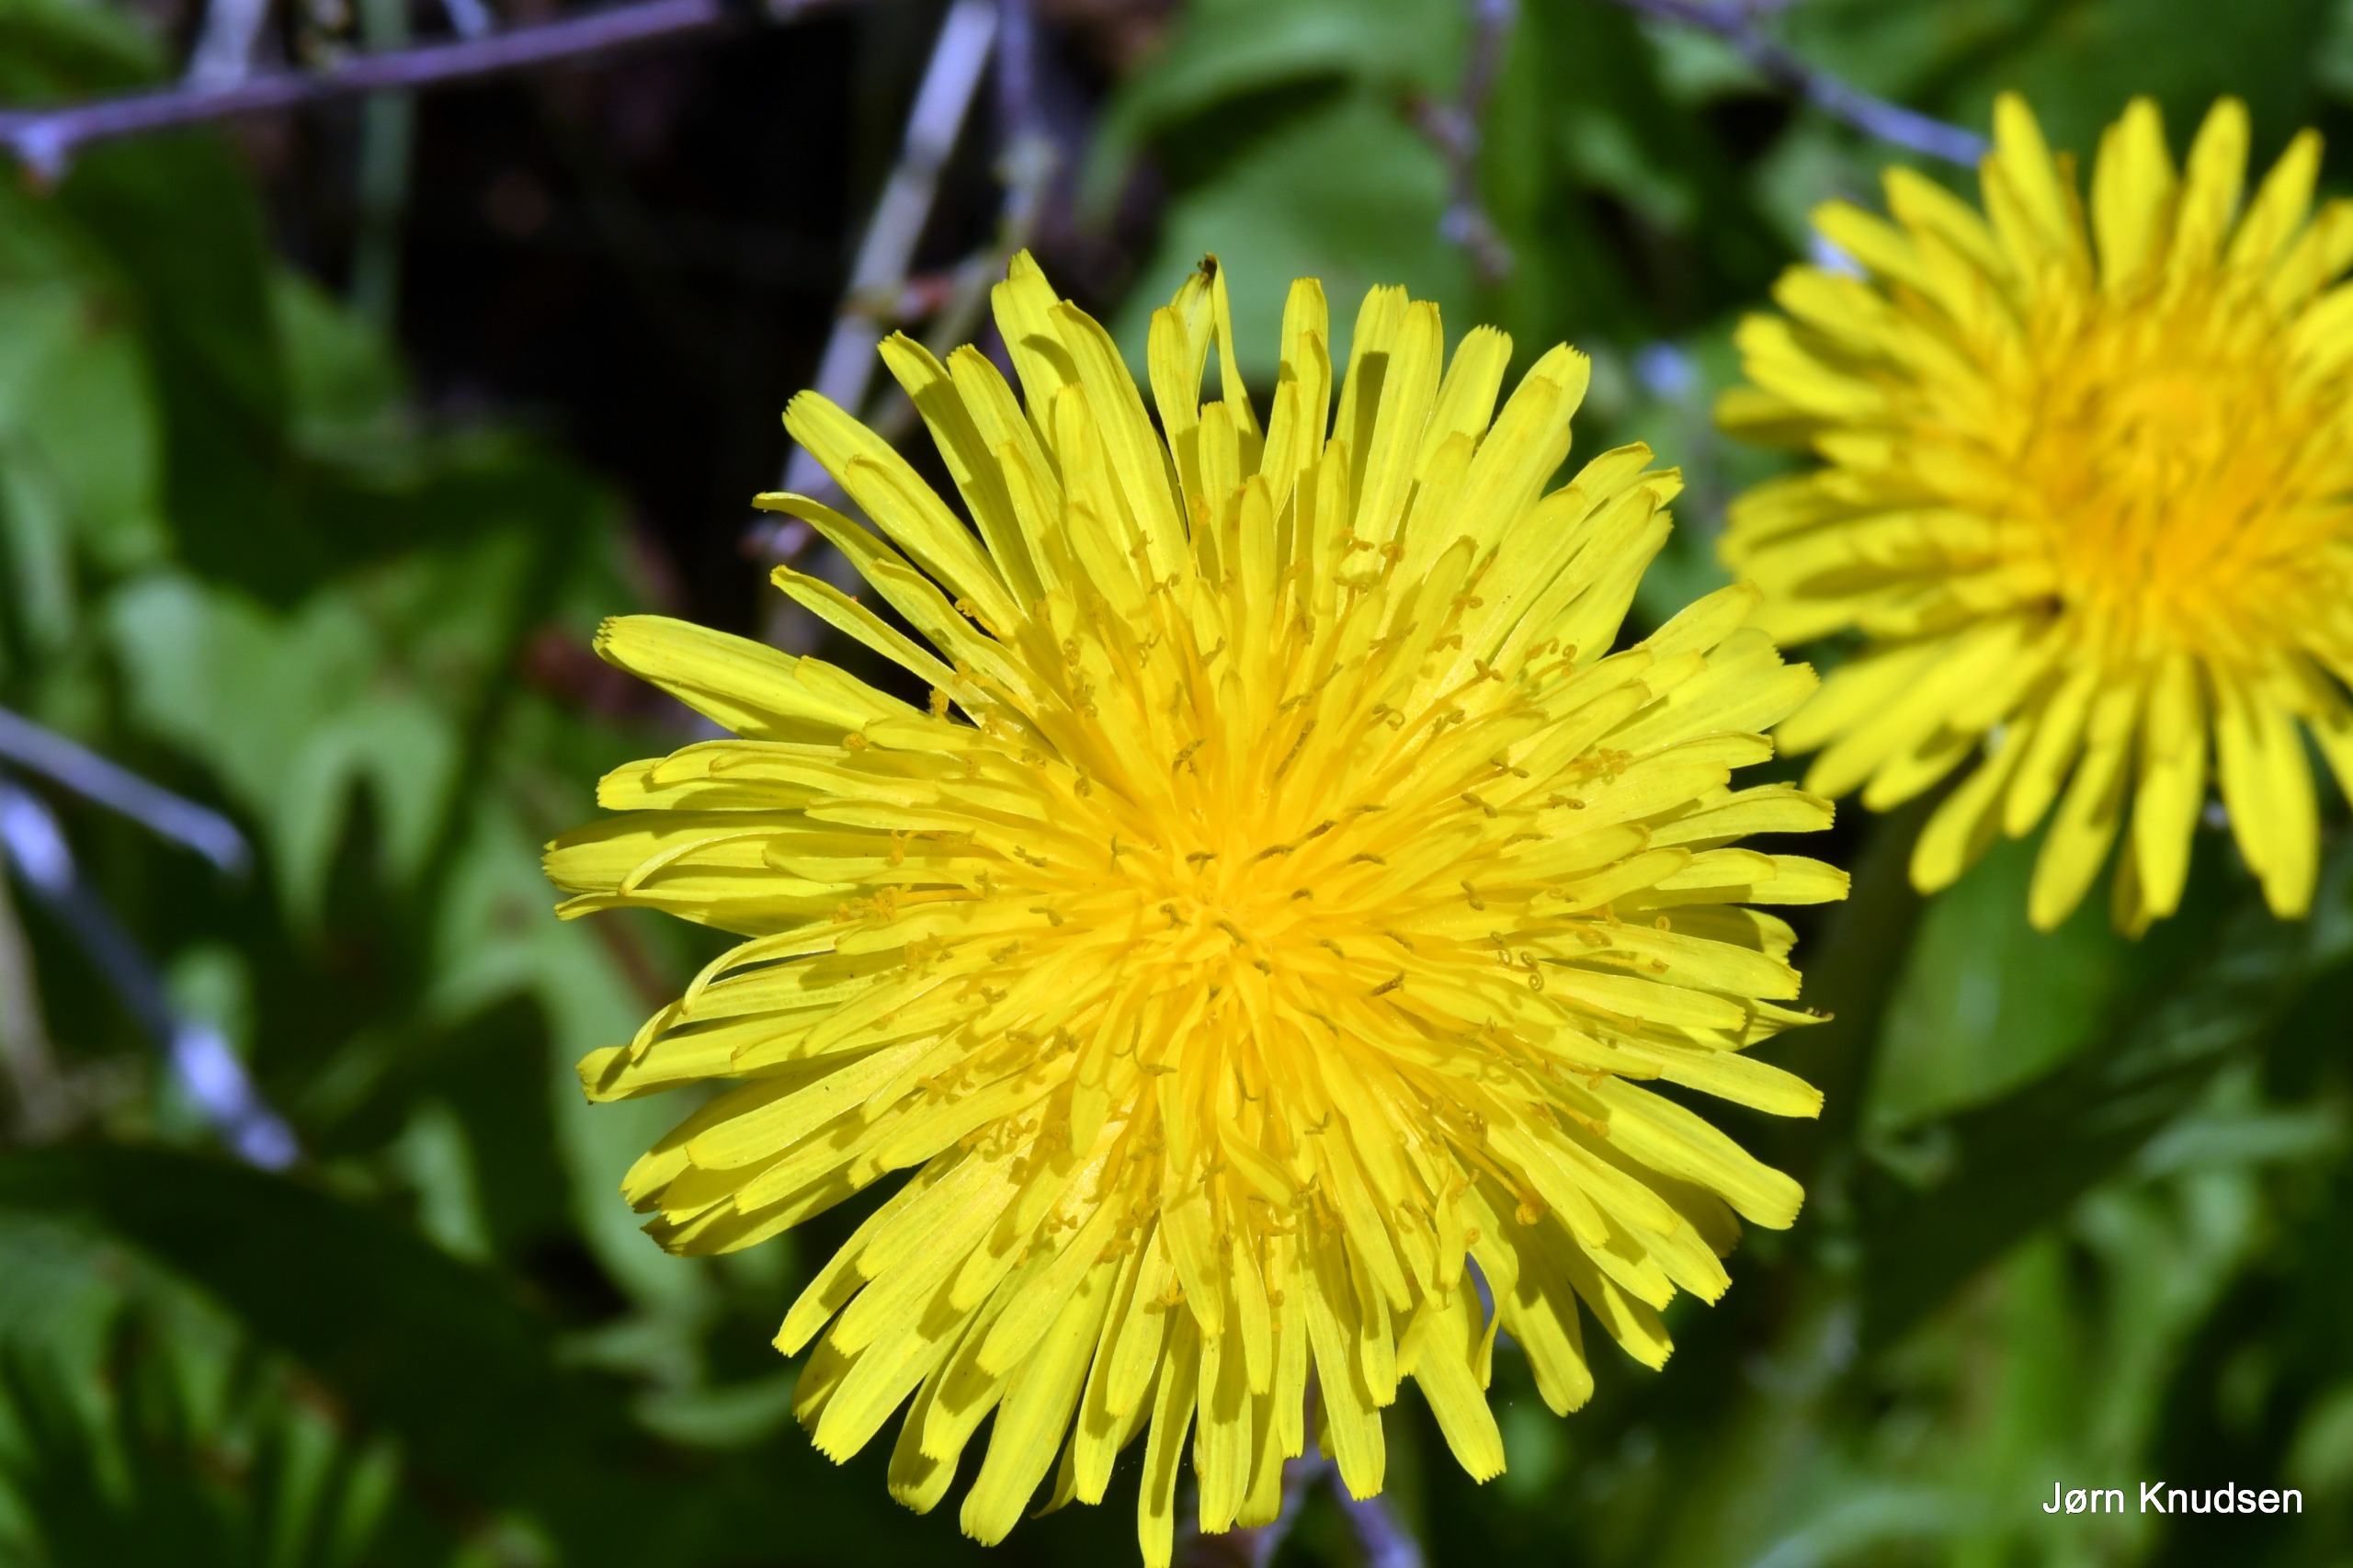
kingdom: Plantae
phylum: Tracheophyta
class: Magnoliopsida
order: Asterales
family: Asteraceae
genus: Taraxacum
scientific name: Taraxacum
